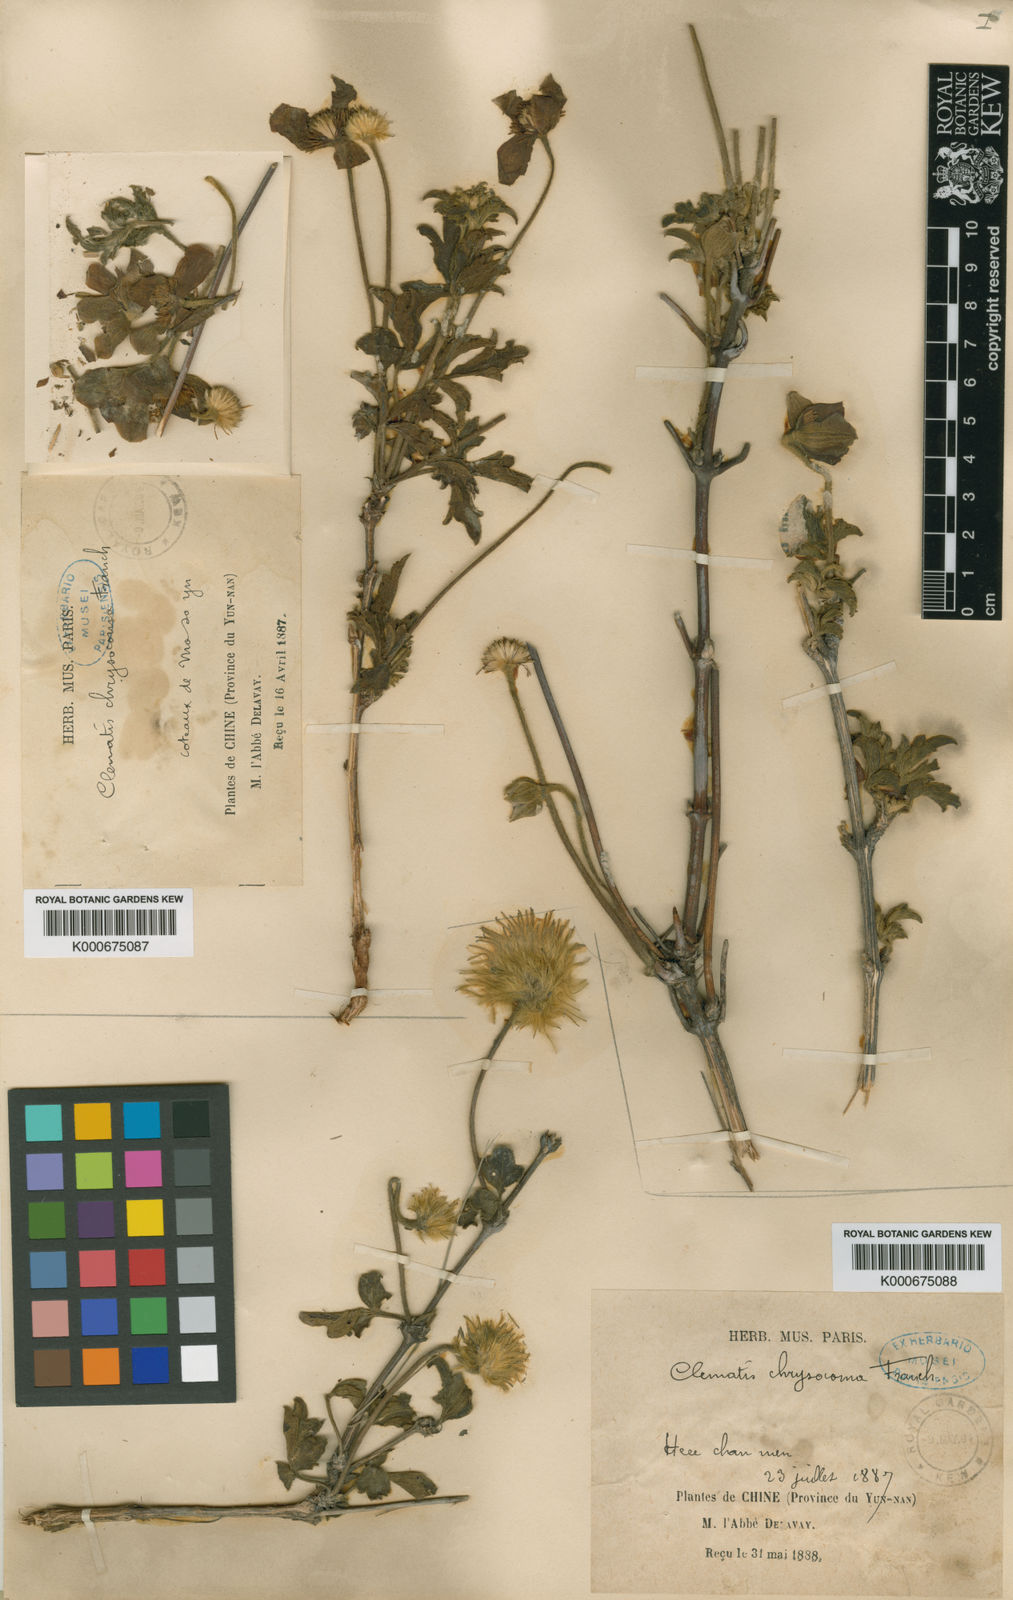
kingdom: Plantae
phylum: Tracheophyta
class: Magnoliopsida
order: Ranunculales
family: Ranunculaceae
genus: Clematis
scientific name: Clematis chrysocoma
